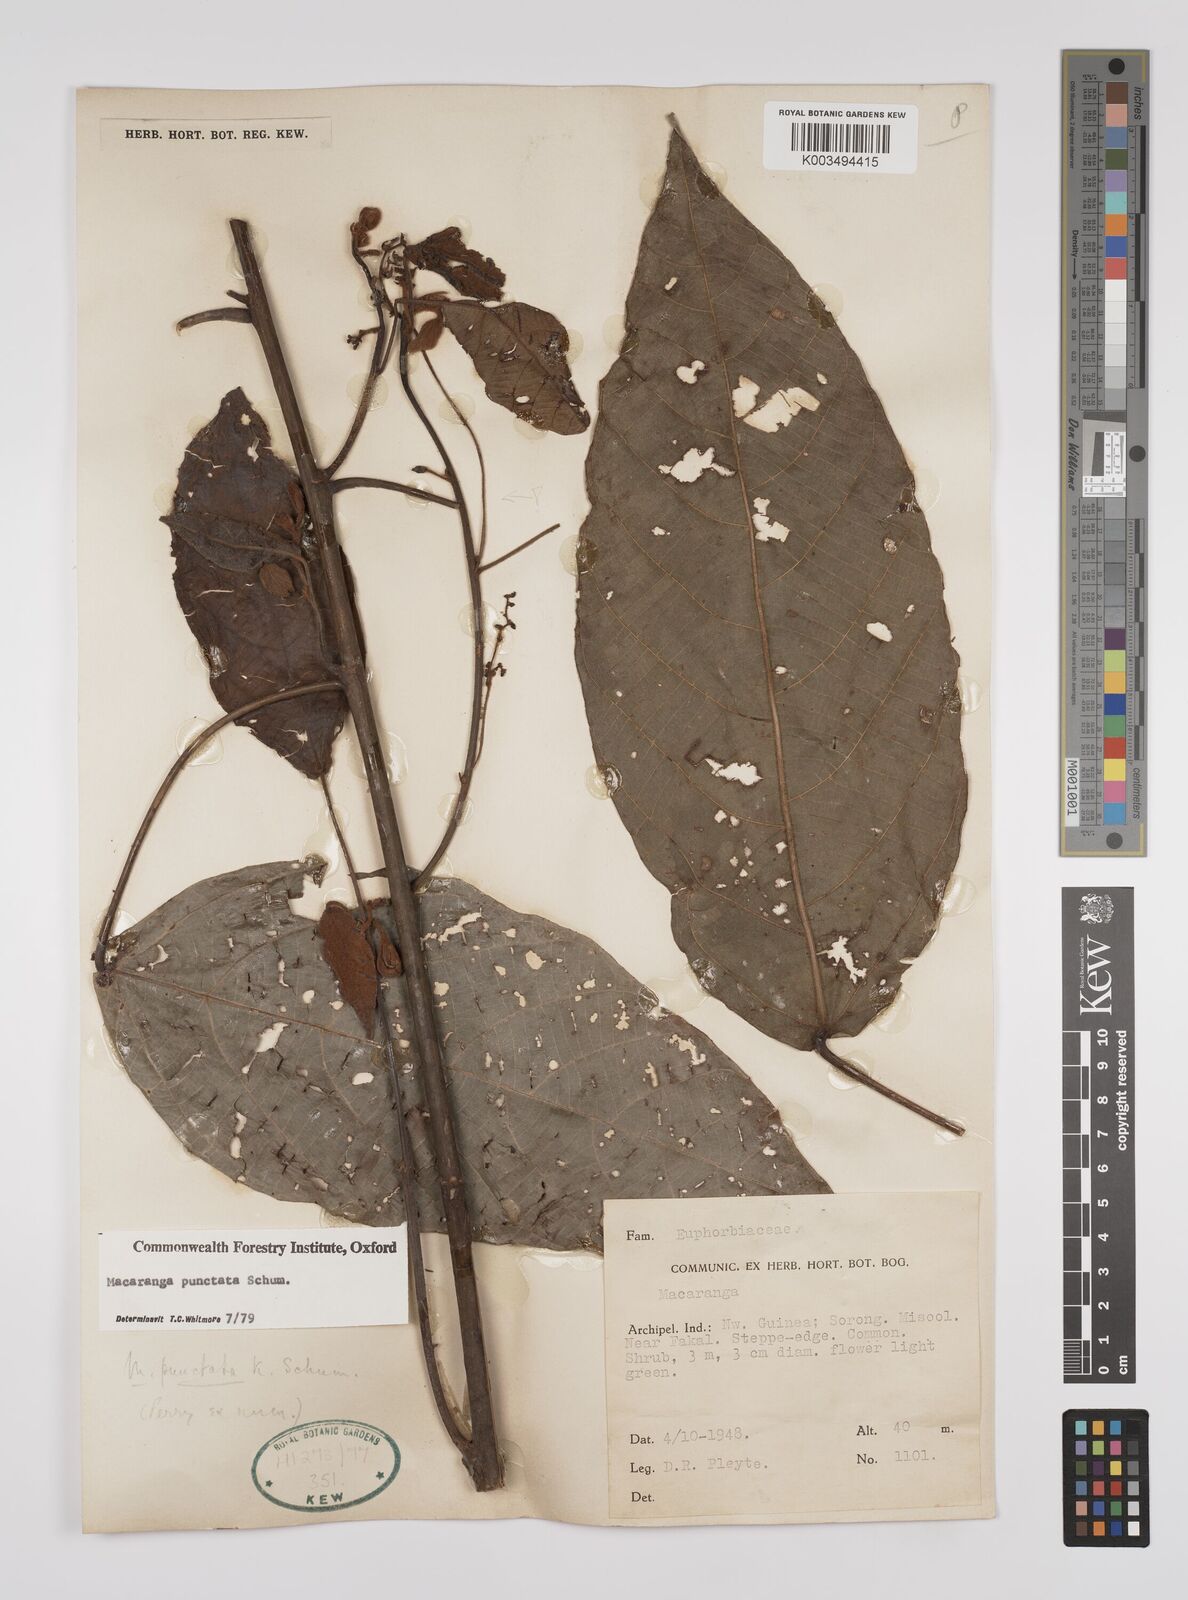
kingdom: Plantae
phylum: Tracheophyta
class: Magnoliopsida
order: Malpighiales
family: Euphorbiaceae
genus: Macaranga
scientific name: Macaranga punctata
